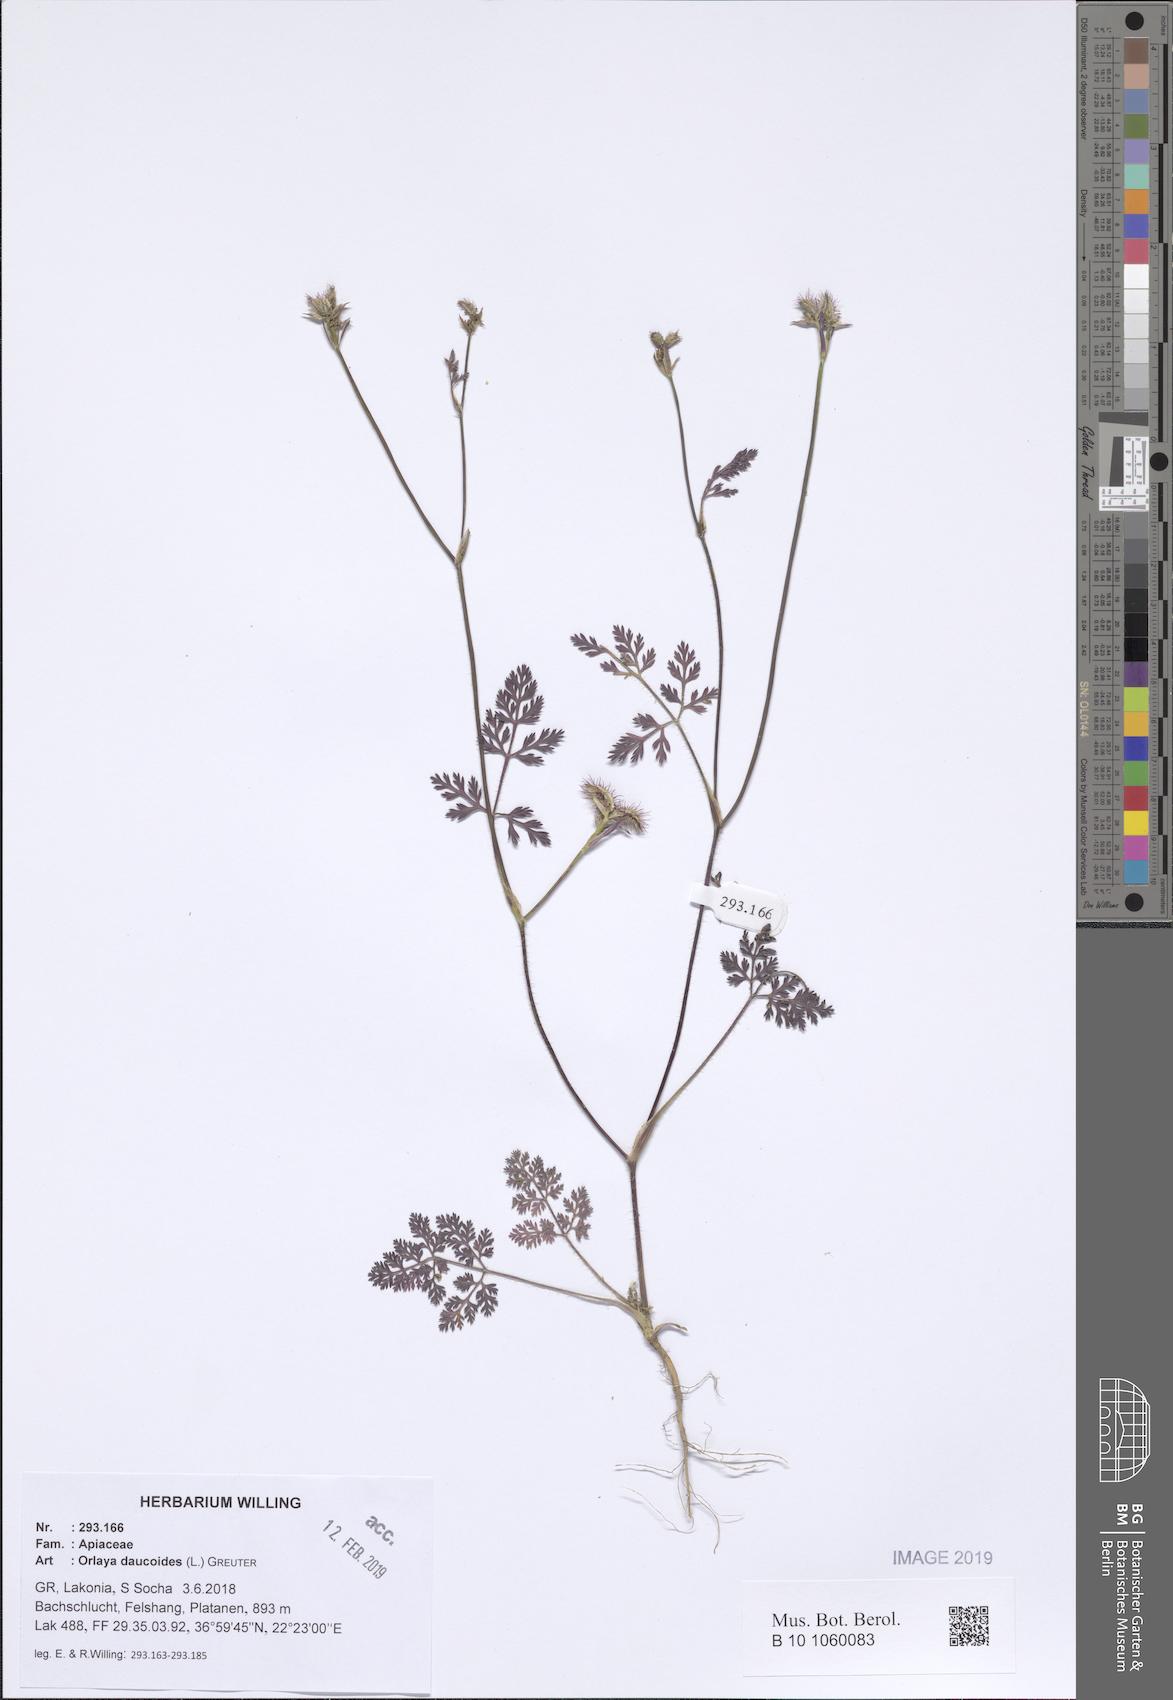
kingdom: Plantae
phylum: Tracheophyta
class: Magnoliopsida
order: Apiales
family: Apiaceae
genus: Orlaya
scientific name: Orlaya daucoides
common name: Flat-fruit orlaya
